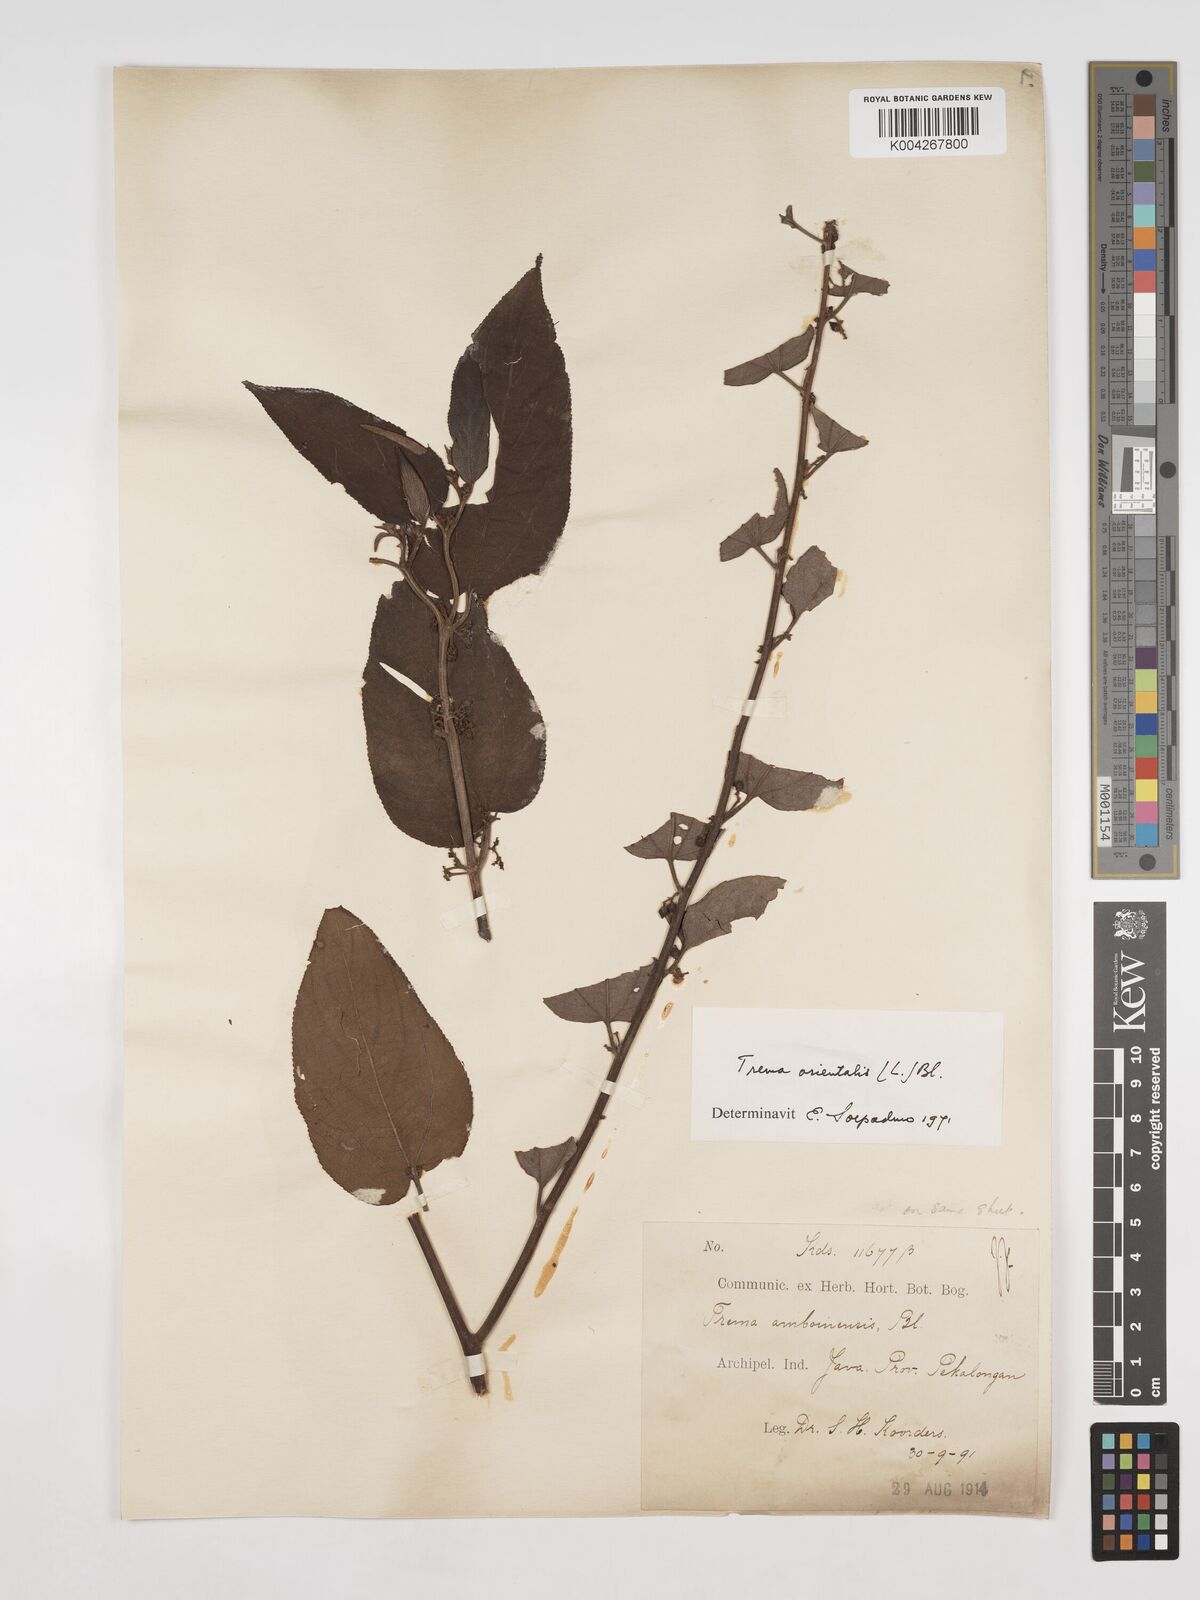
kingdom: Plantae
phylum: Tracheophyta
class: Magnoliopsida
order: Rosales
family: Cannabaceae
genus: Trema
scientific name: Trema orientale
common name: Indian charcoal tree
